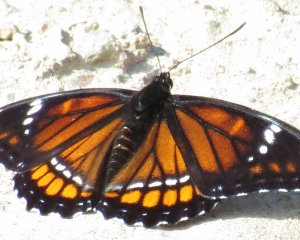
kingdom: Animalia
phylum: Arthropoda
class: Insecta
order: Lepidoptera
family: Nymphalidae
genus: Limenitis
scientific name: Limenitis archippus
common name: Viceroy
